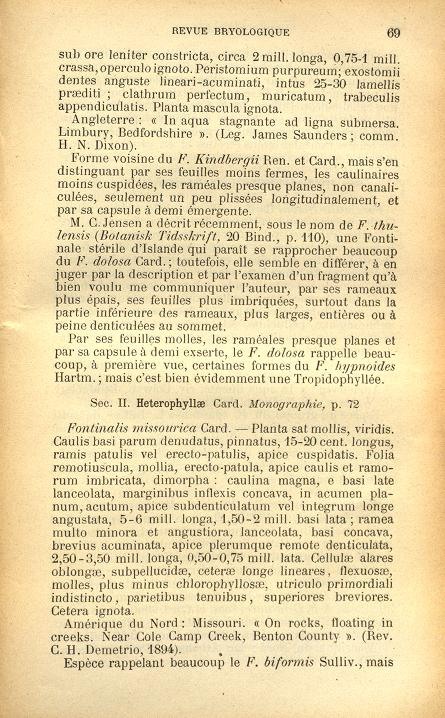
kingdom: Plantae
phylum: Bryophyta
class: Bryopsida
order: Hypnales
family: Fontinalaceae
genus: Fontinalis
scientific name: Fontinalis missourica
